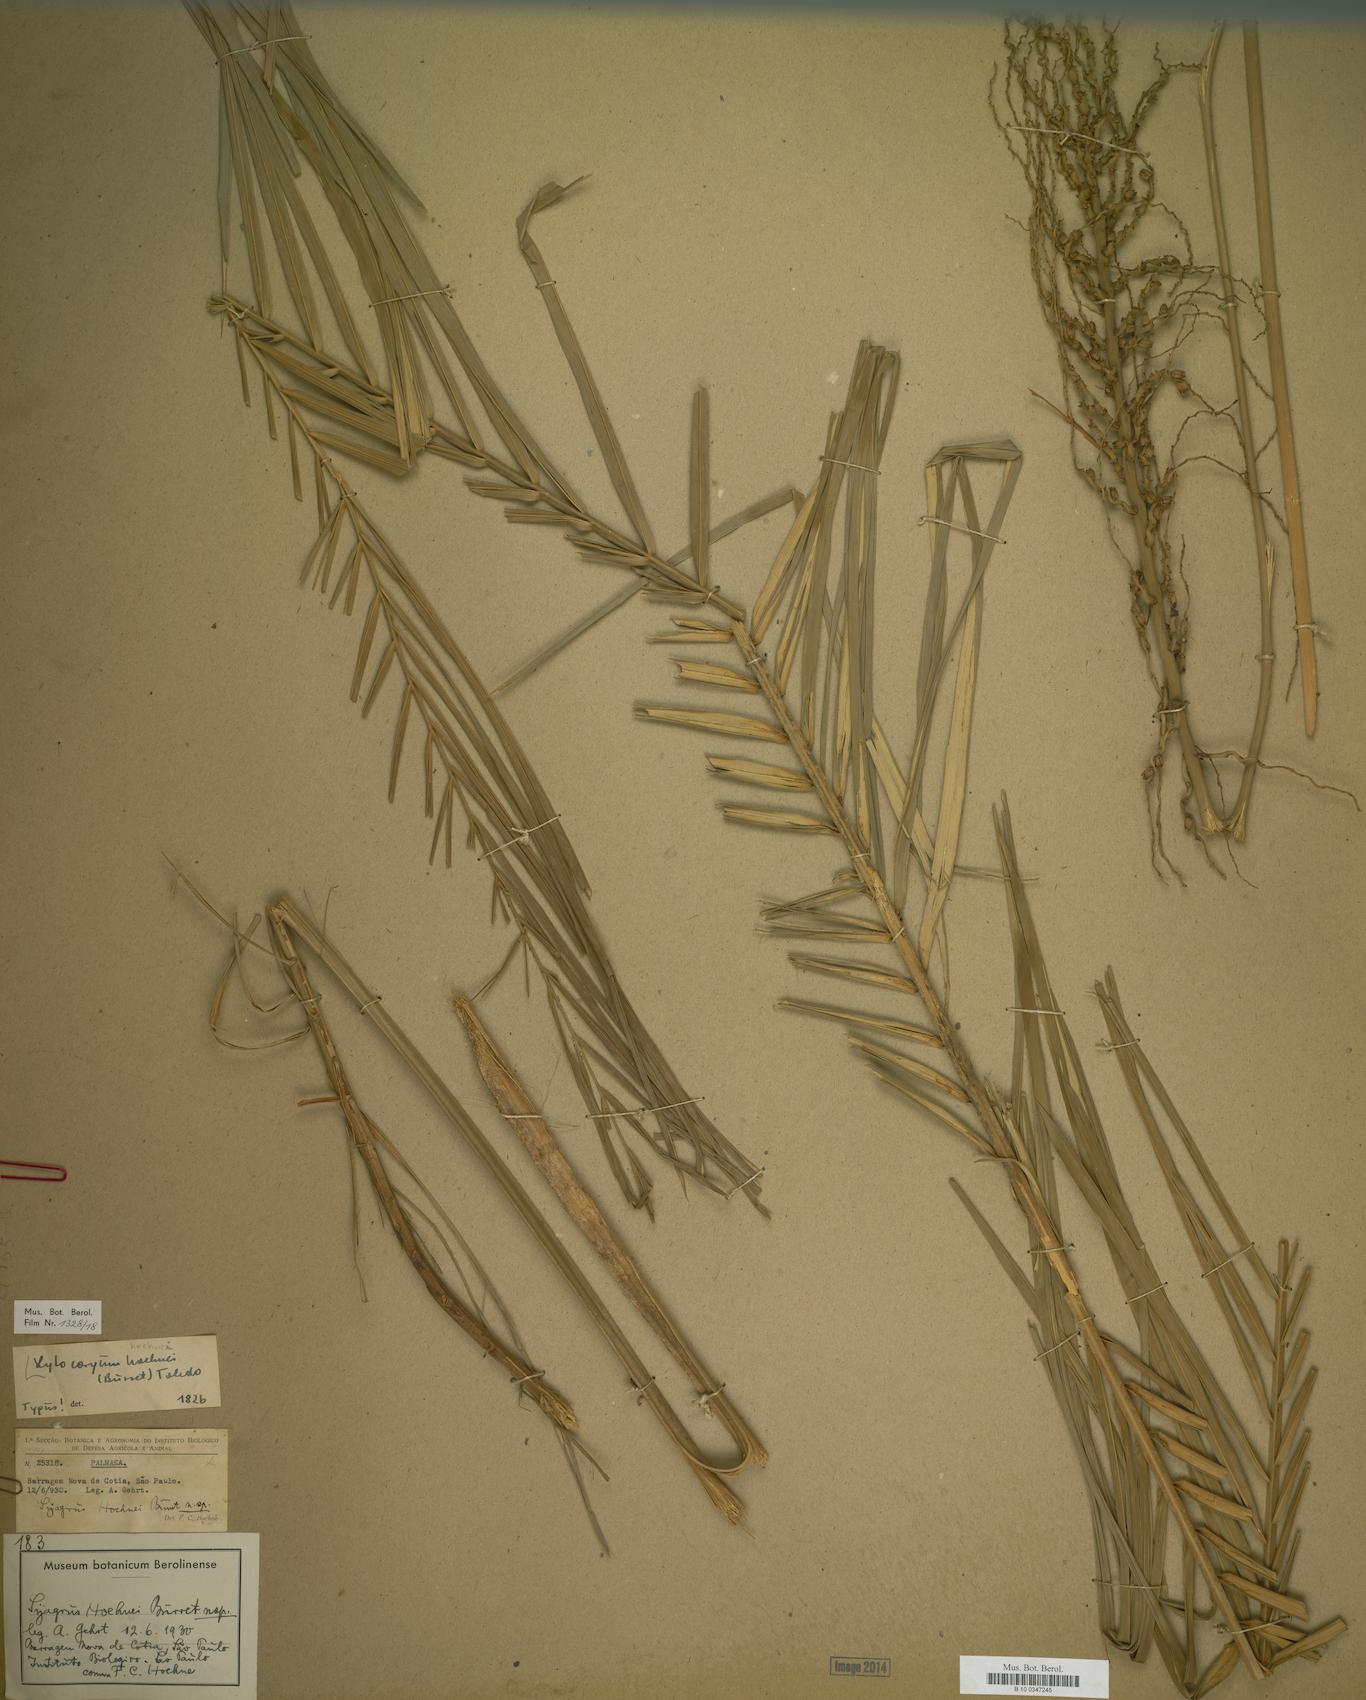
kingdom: Plantae
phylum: Tracheophyta
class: Liliopsida
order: Arecales
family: Arecaceae
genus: Syagrus
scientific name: Syagrus hoehnei
